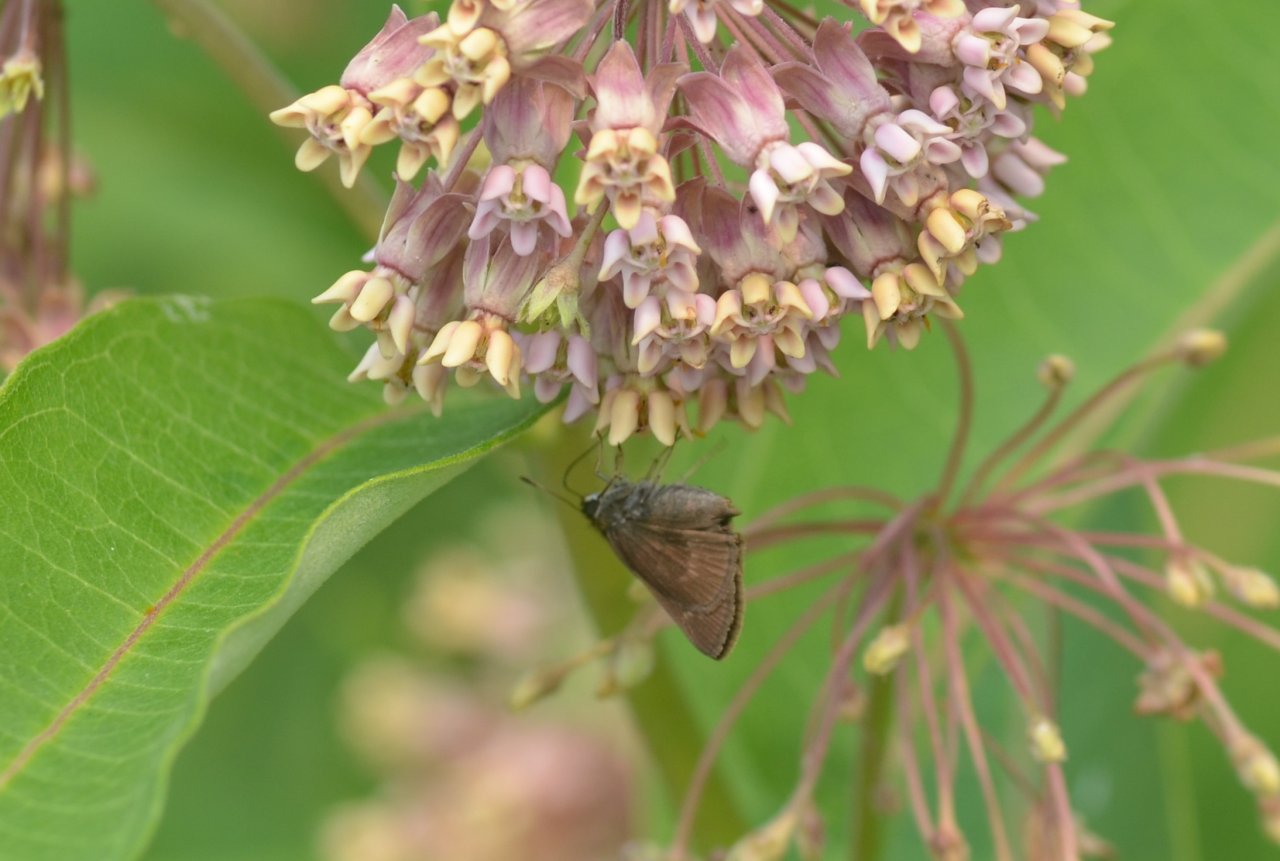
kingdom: Animalia
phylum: Arthropoda
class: Insecta
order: Lepidoptera
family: Hesperiidae
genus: Euphyes
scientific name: Euphyes vestris
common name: Dun Skipper
